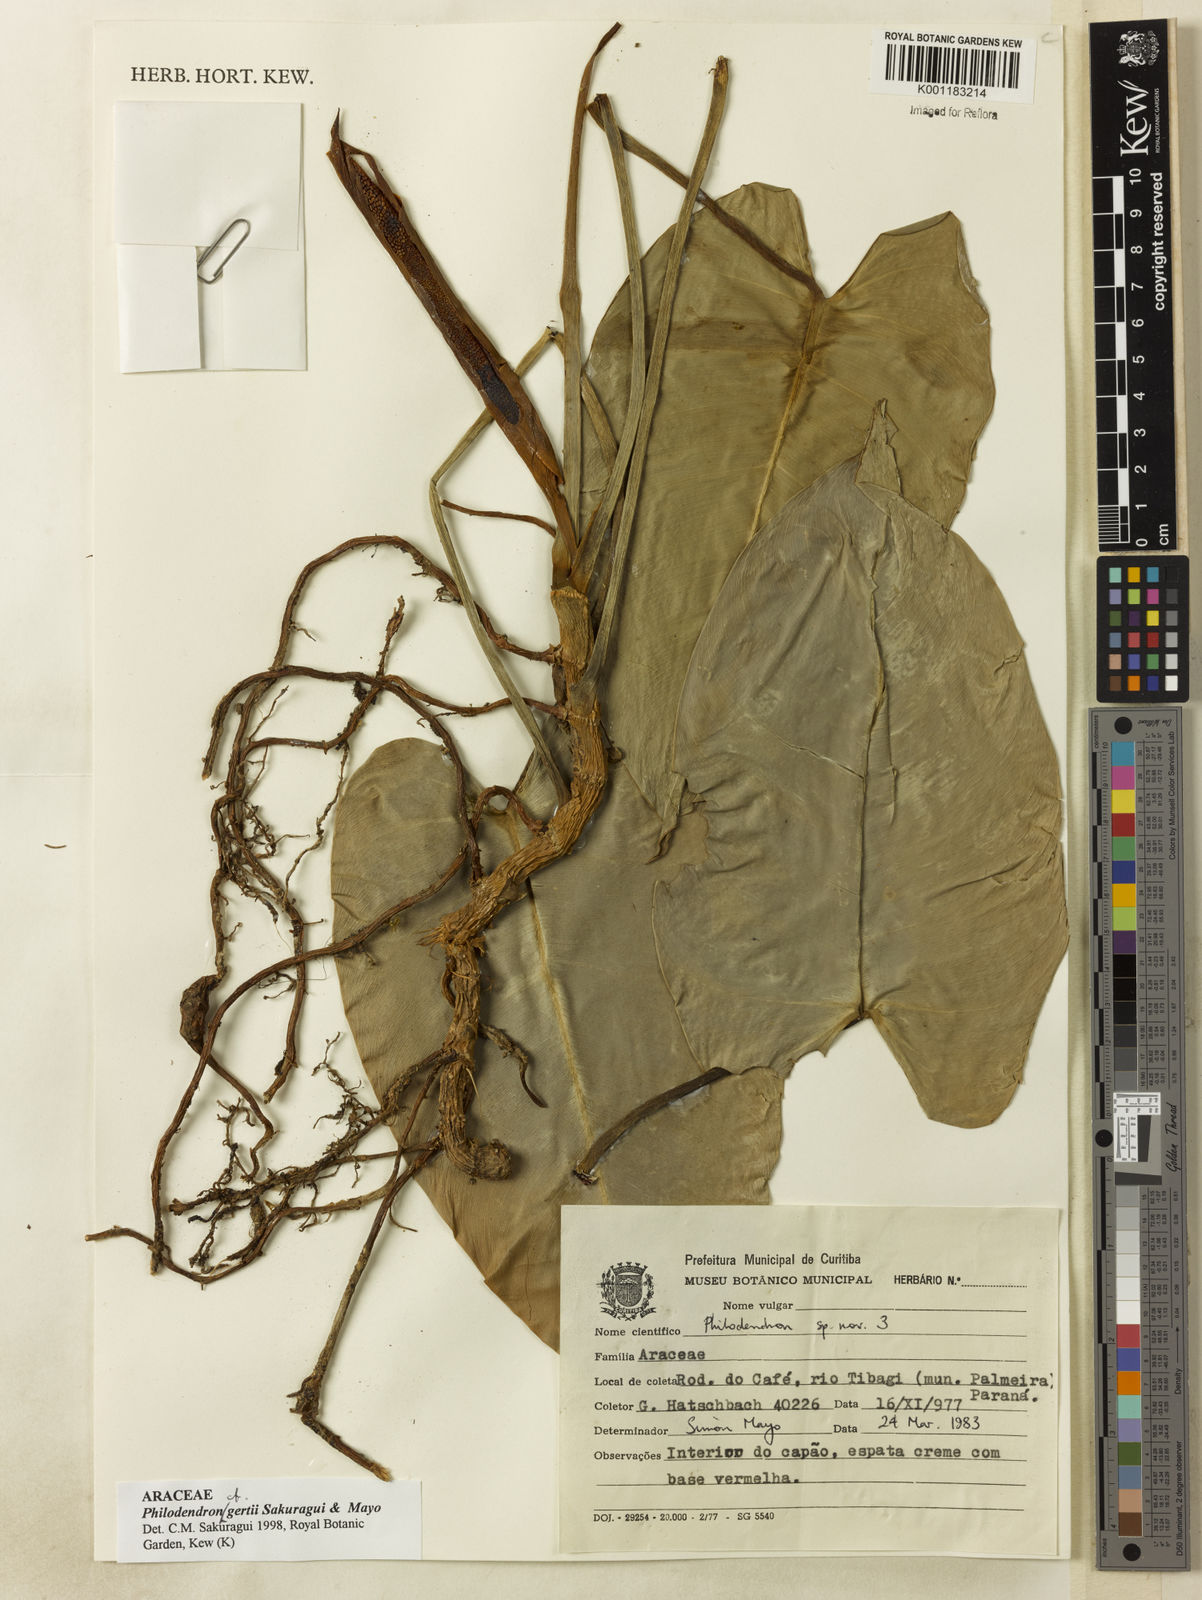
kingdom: Plantae
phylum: Tracheophyta
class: Liliopsida
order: Alismatales
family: Araceae
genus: Philodendron
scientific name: Philodendron
